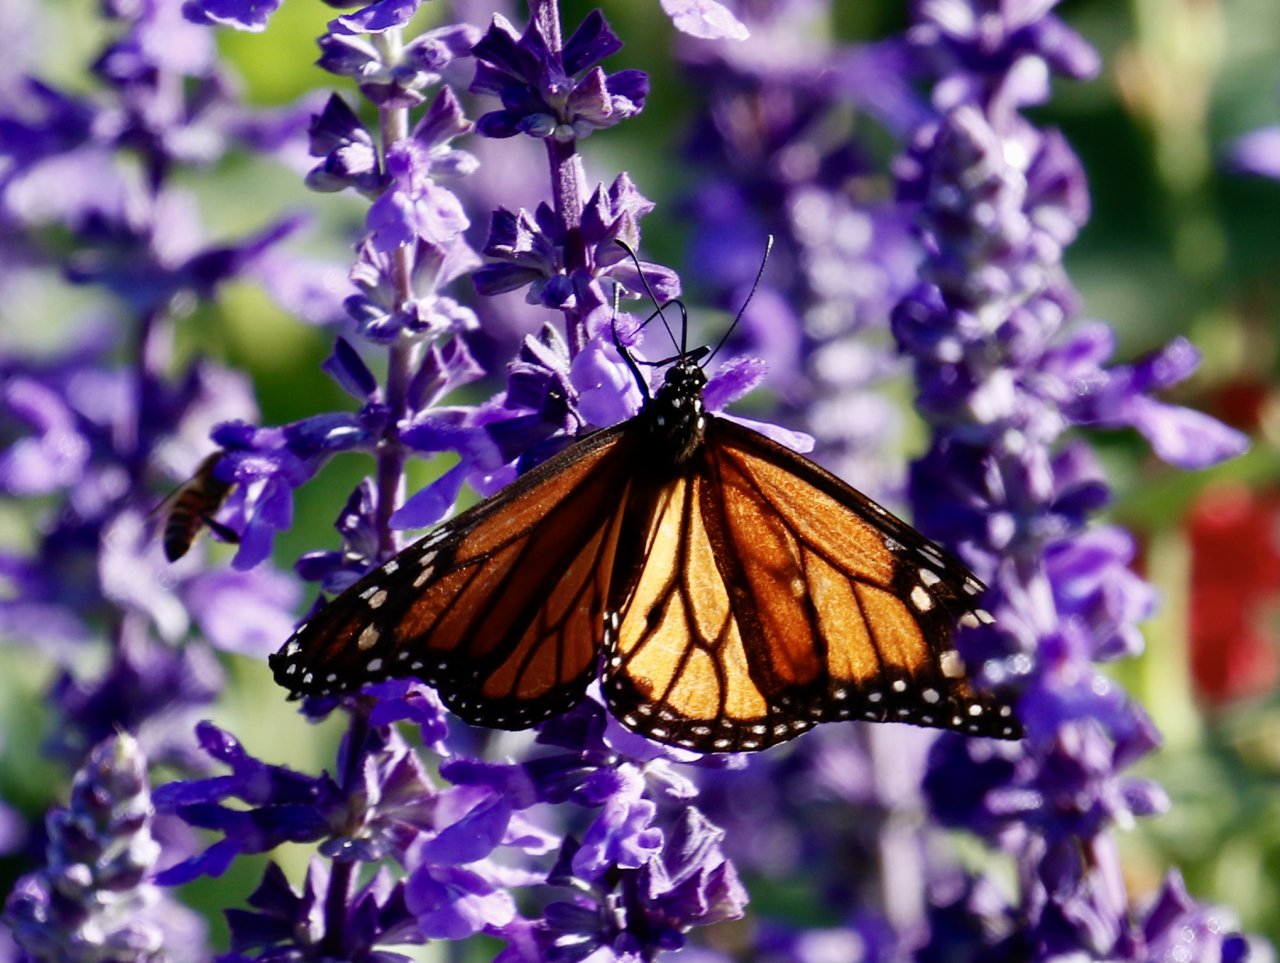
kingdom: Animalia
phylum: Arthropoda
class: Insecta
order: Lepidoptera
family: Nymphalidae
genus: Danaus
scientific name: Danaus plexippus
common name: Monarch
